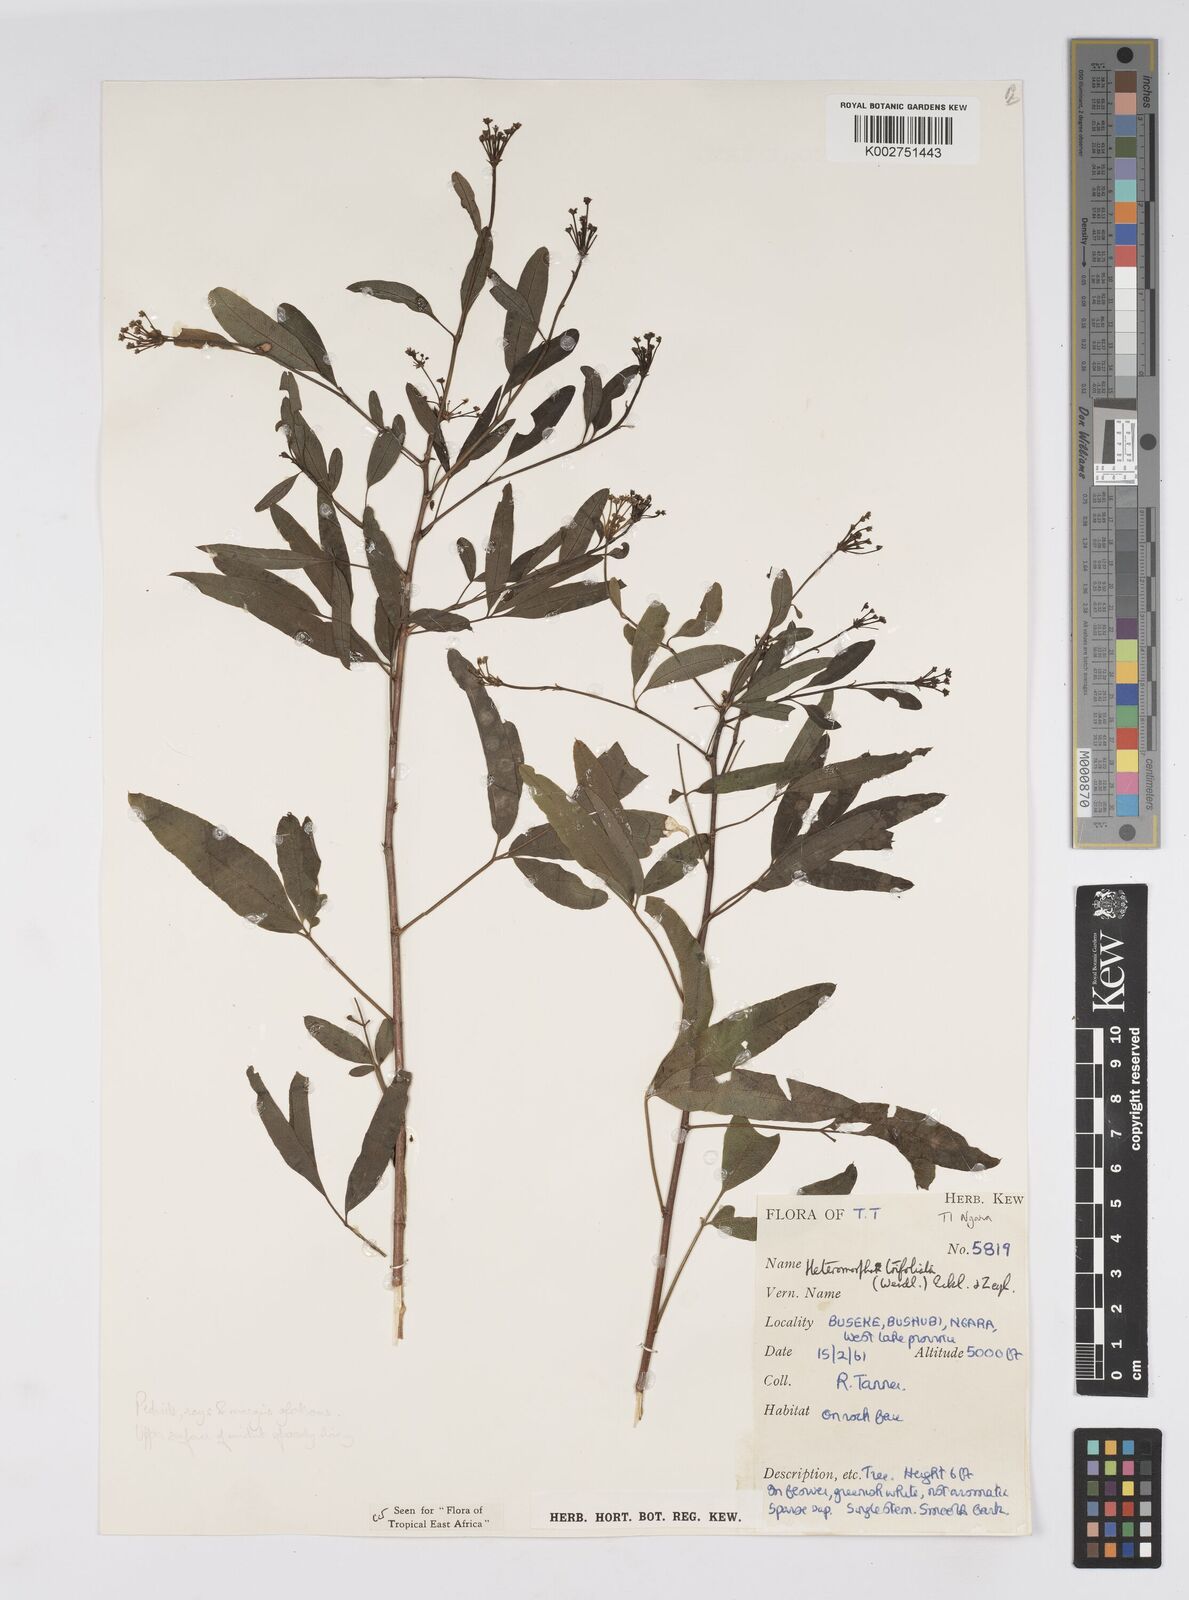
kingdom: Plantae
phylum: Tracheophyta
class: Magnoliopsida
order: Apiales
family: Apiaceae
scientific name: Apiaceae
